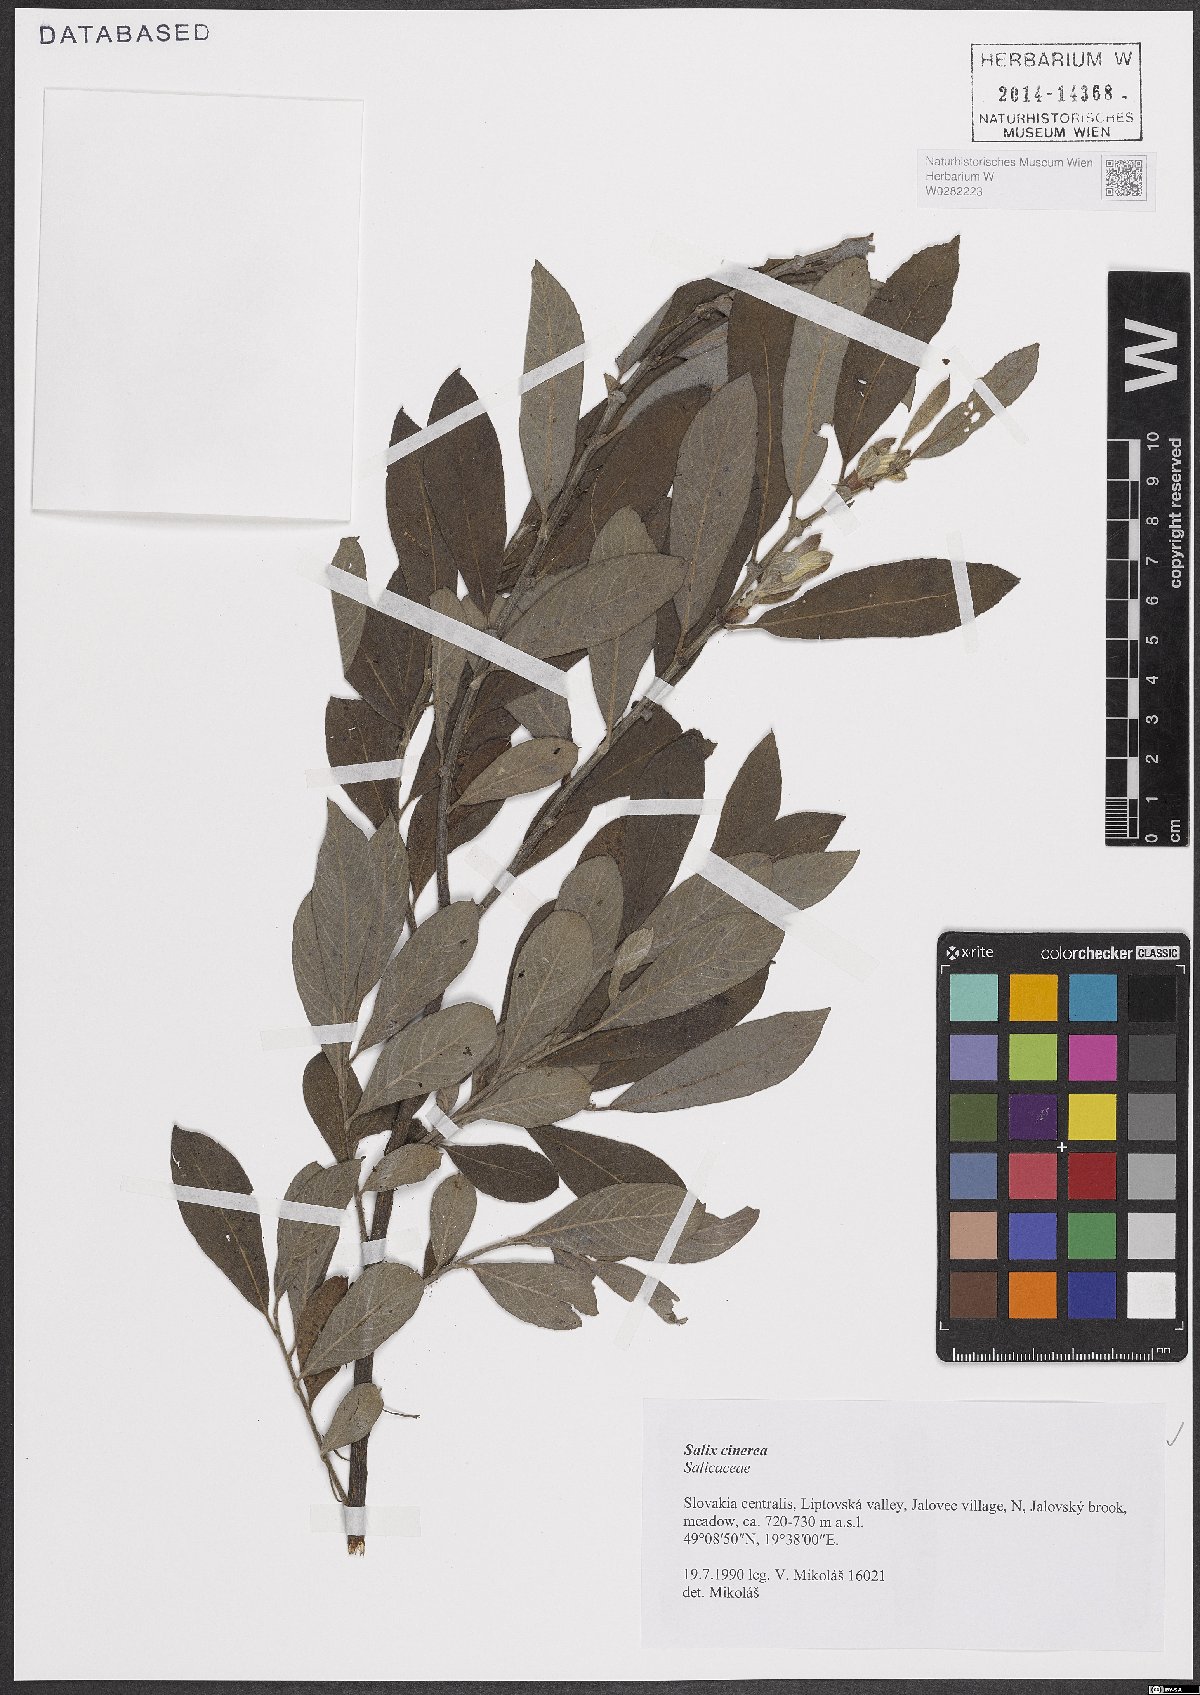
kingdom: Plantae
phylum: Tracheophyta
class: Magnoliopsida
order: Malpighiales
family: Salicaceae
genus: Salix
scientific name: Salix cinerea
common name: Common sallow
